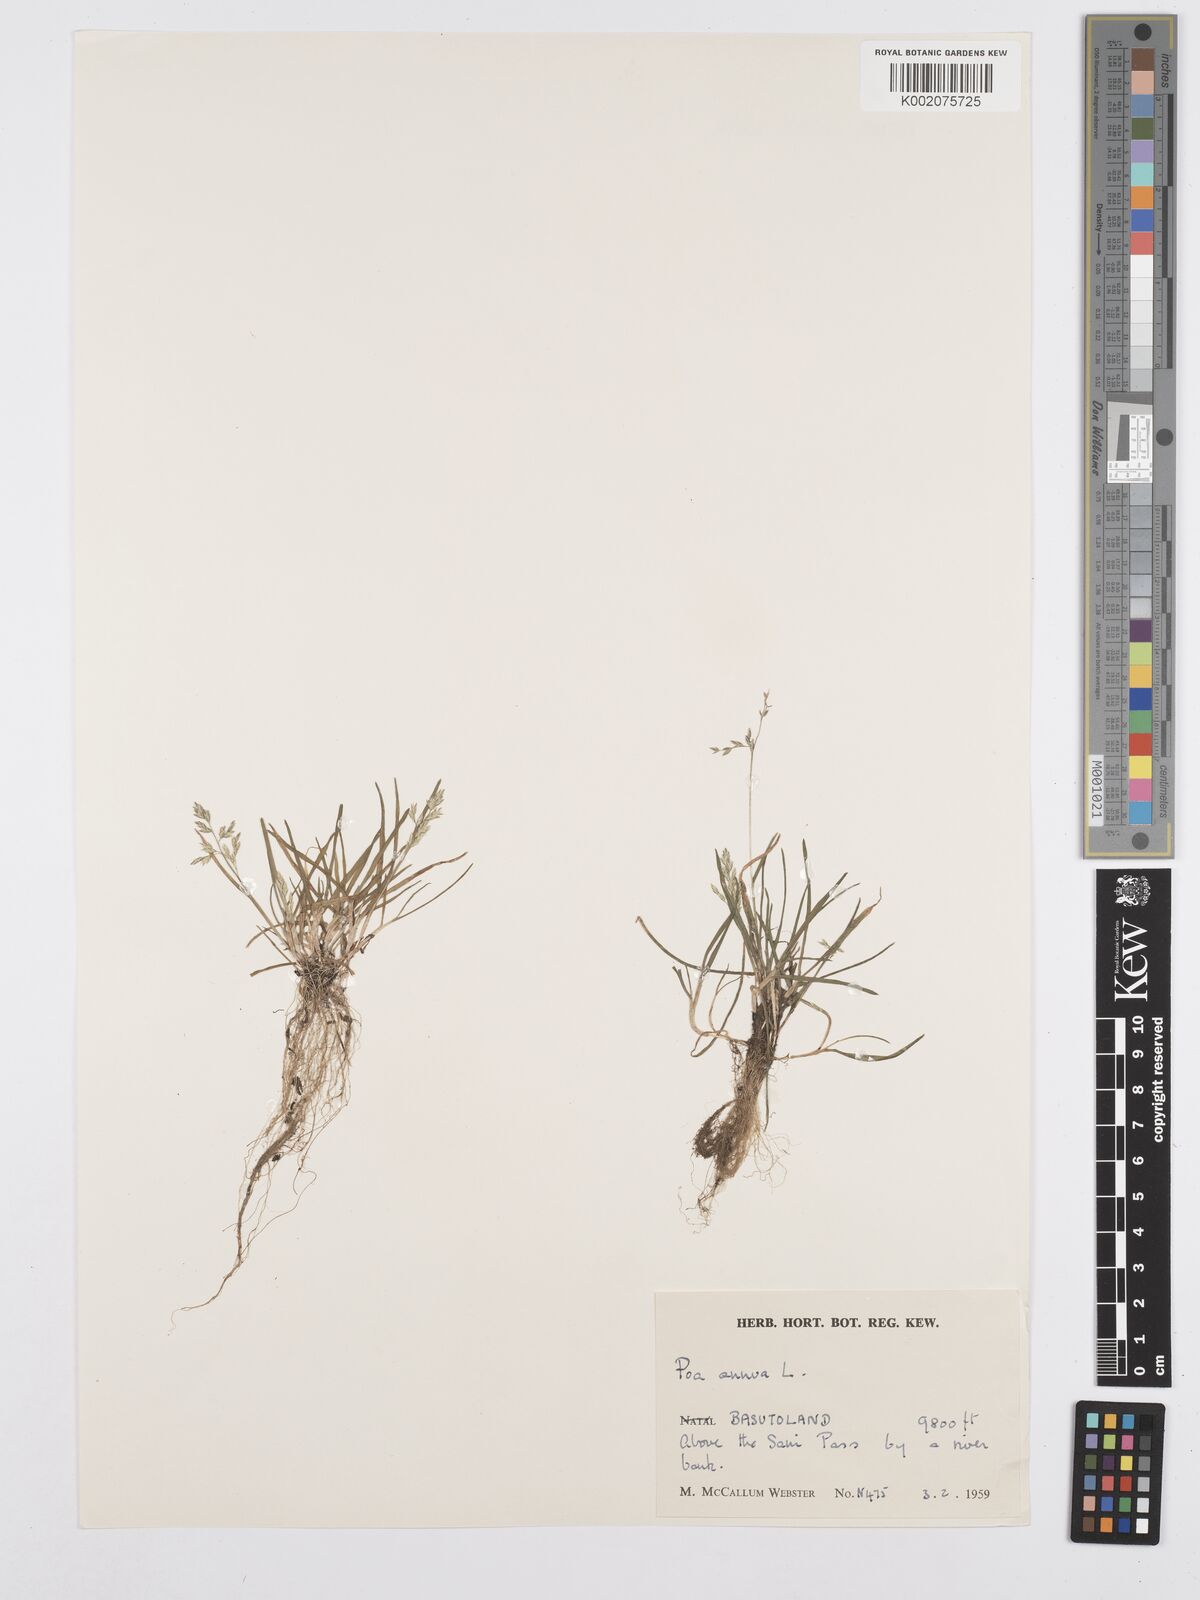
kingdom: Plantae
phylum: Tracheophyta
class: Liliopsida
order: Poales
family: Poaceae
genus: Poa
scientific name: Poa annua
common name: Annual bluegrass
